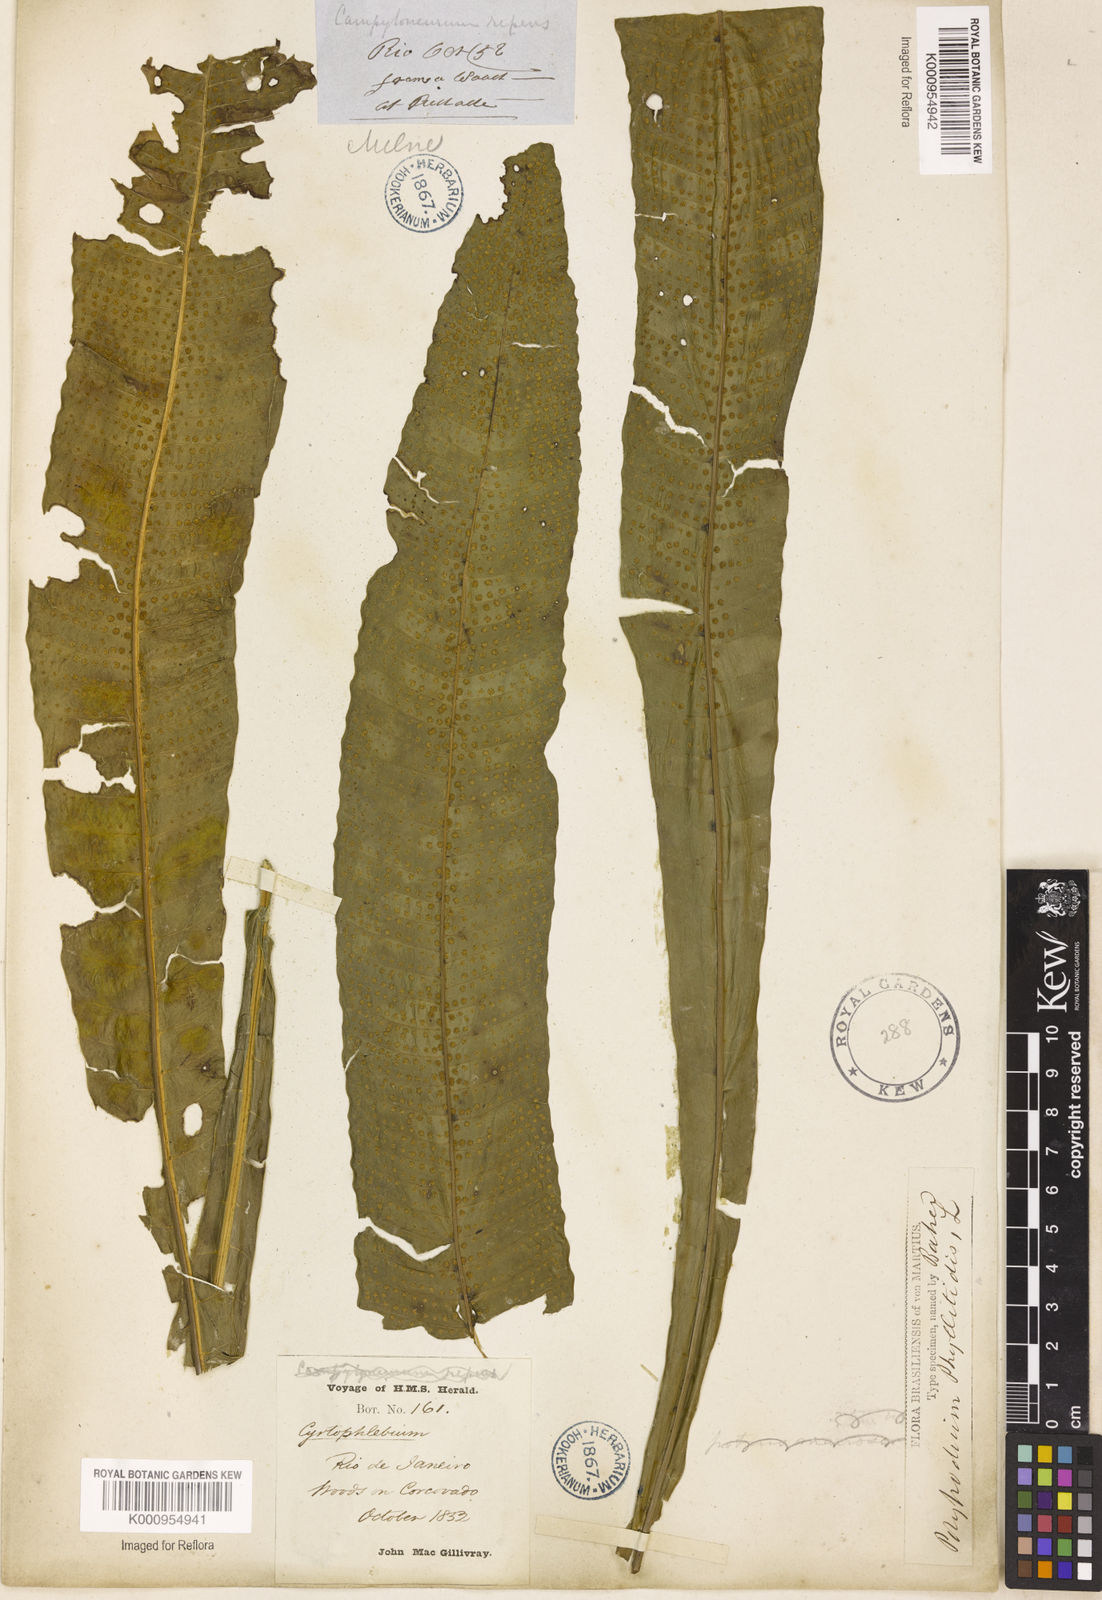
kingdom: Plantae
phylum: Tracheophyta
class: Polypodiopsida
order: Polypodiales
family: Polypodiaceae
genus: Campyloneurum
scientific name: Campyloneurum repens
